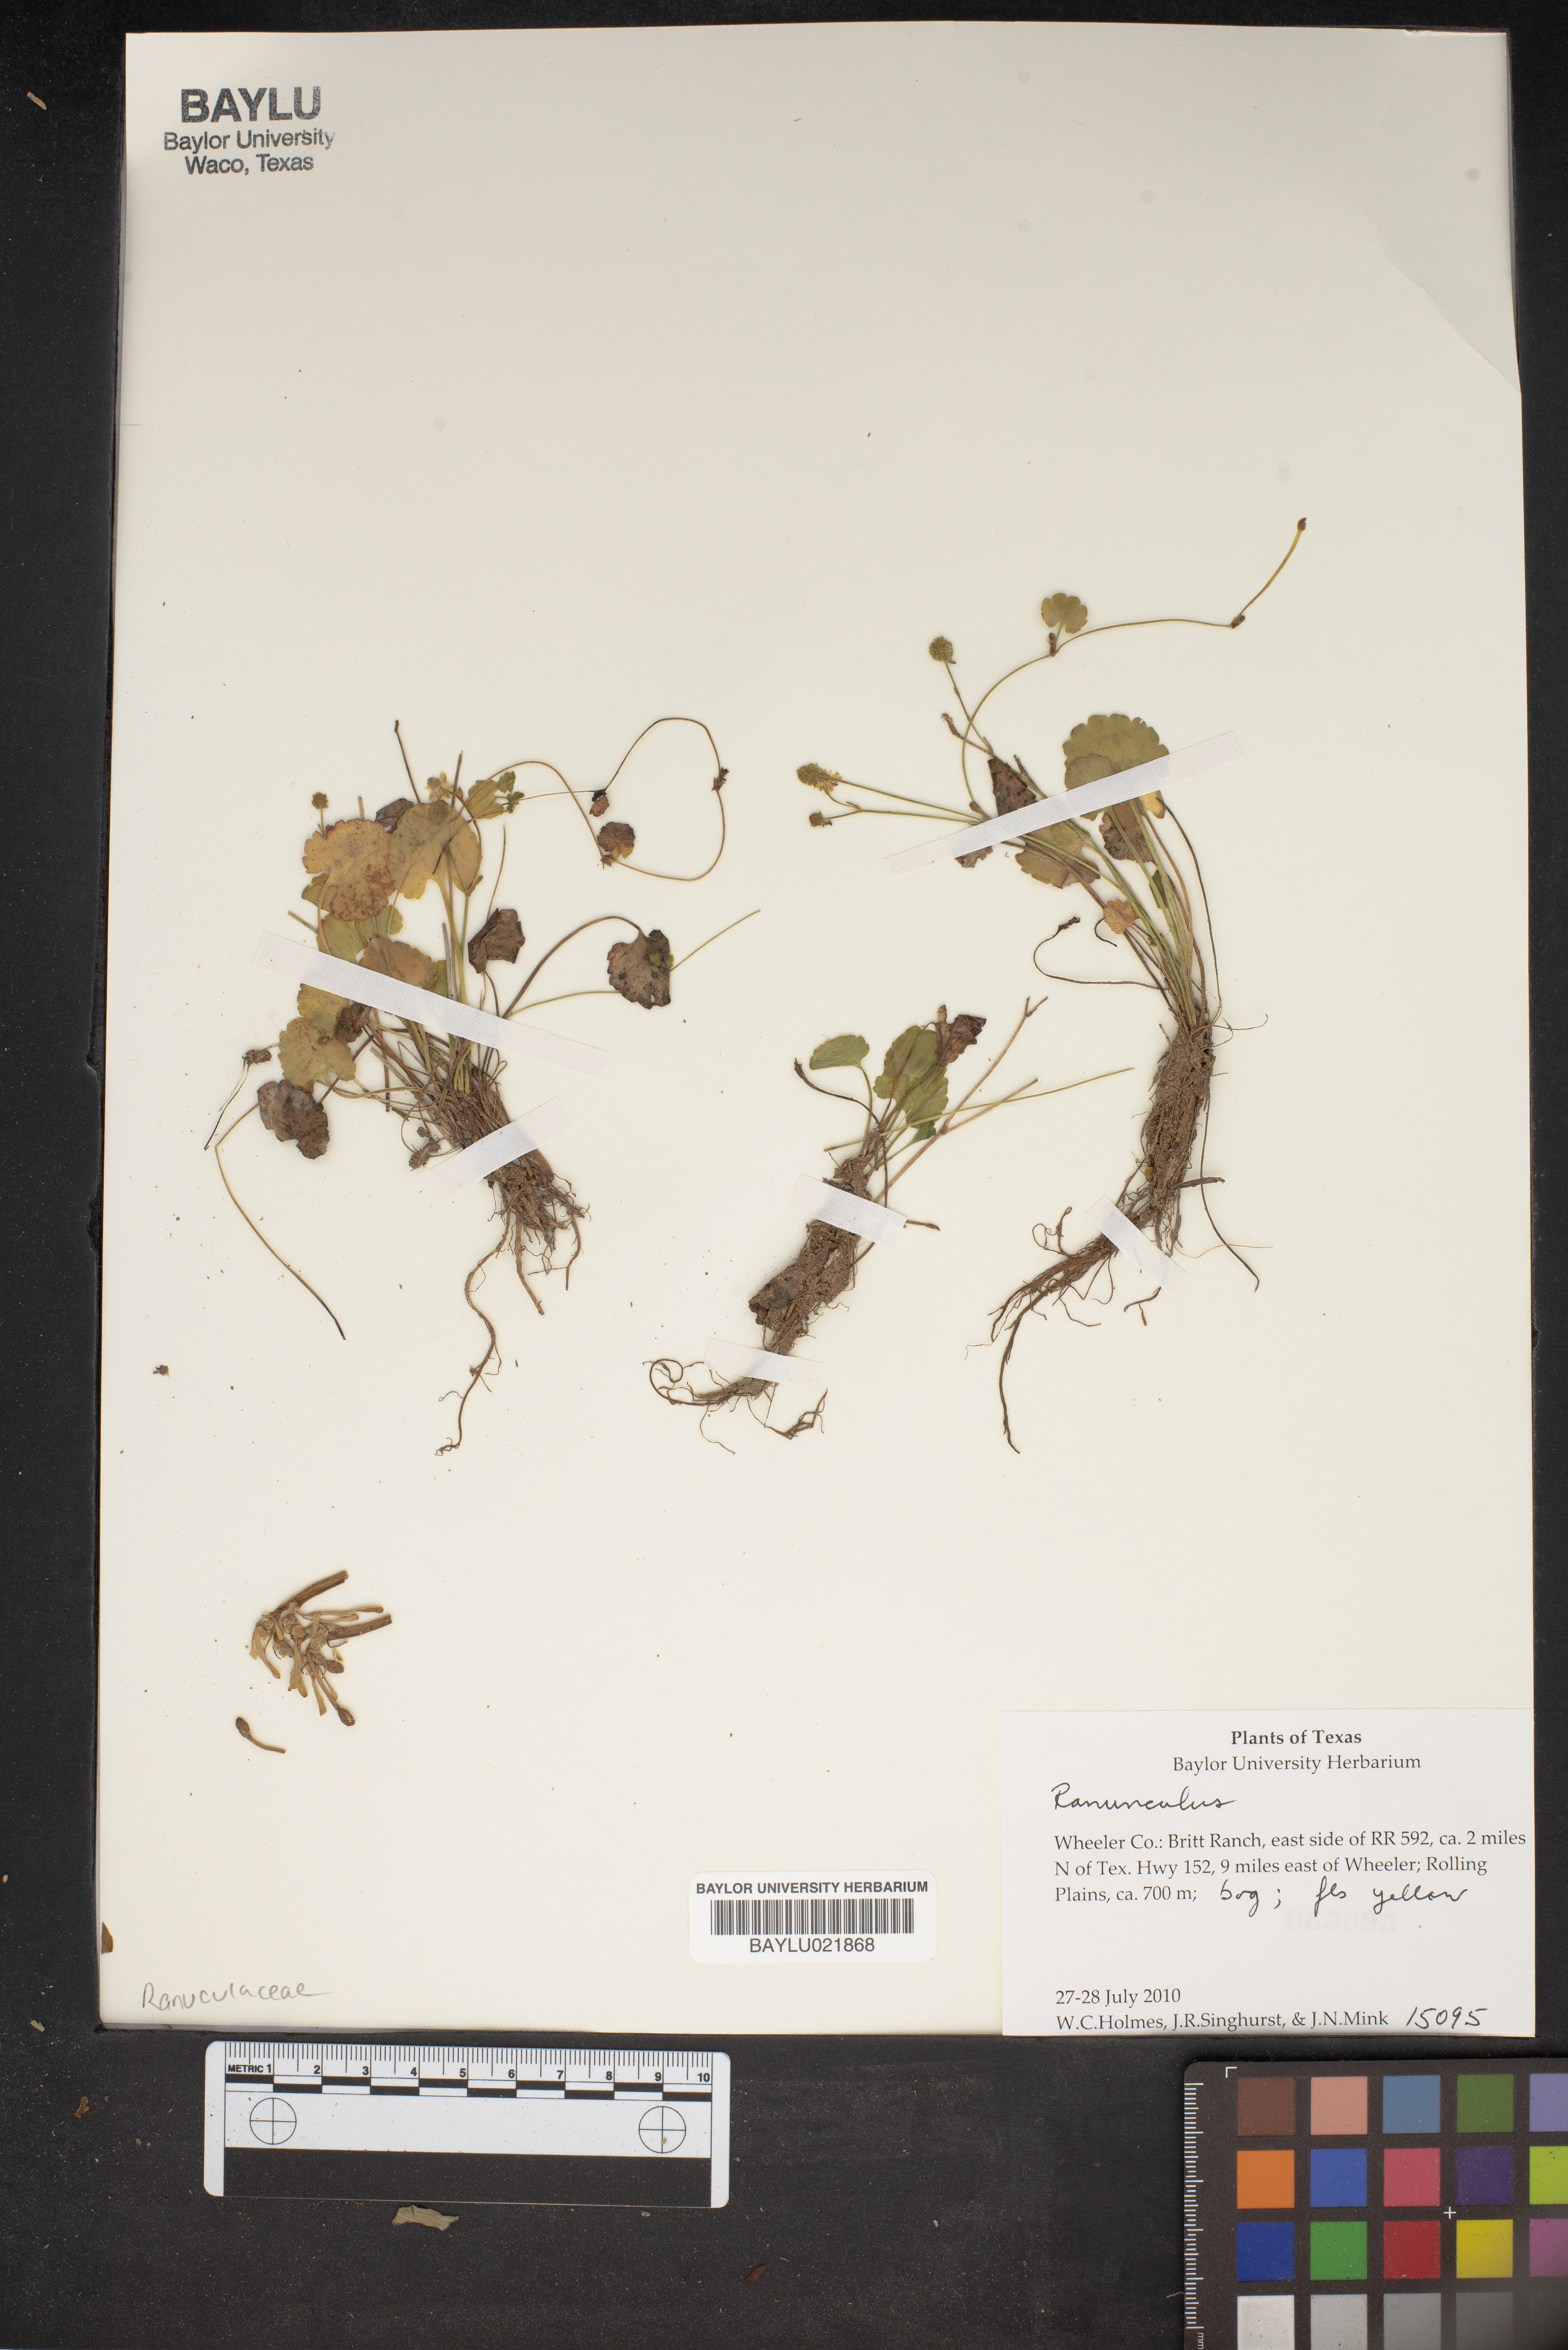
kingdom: Plantae
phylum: Tracheophyta
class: Magnoliopsida
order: Ranunculales
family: Ranunculaceae
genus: Ranunculus
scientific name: Ranunculus
